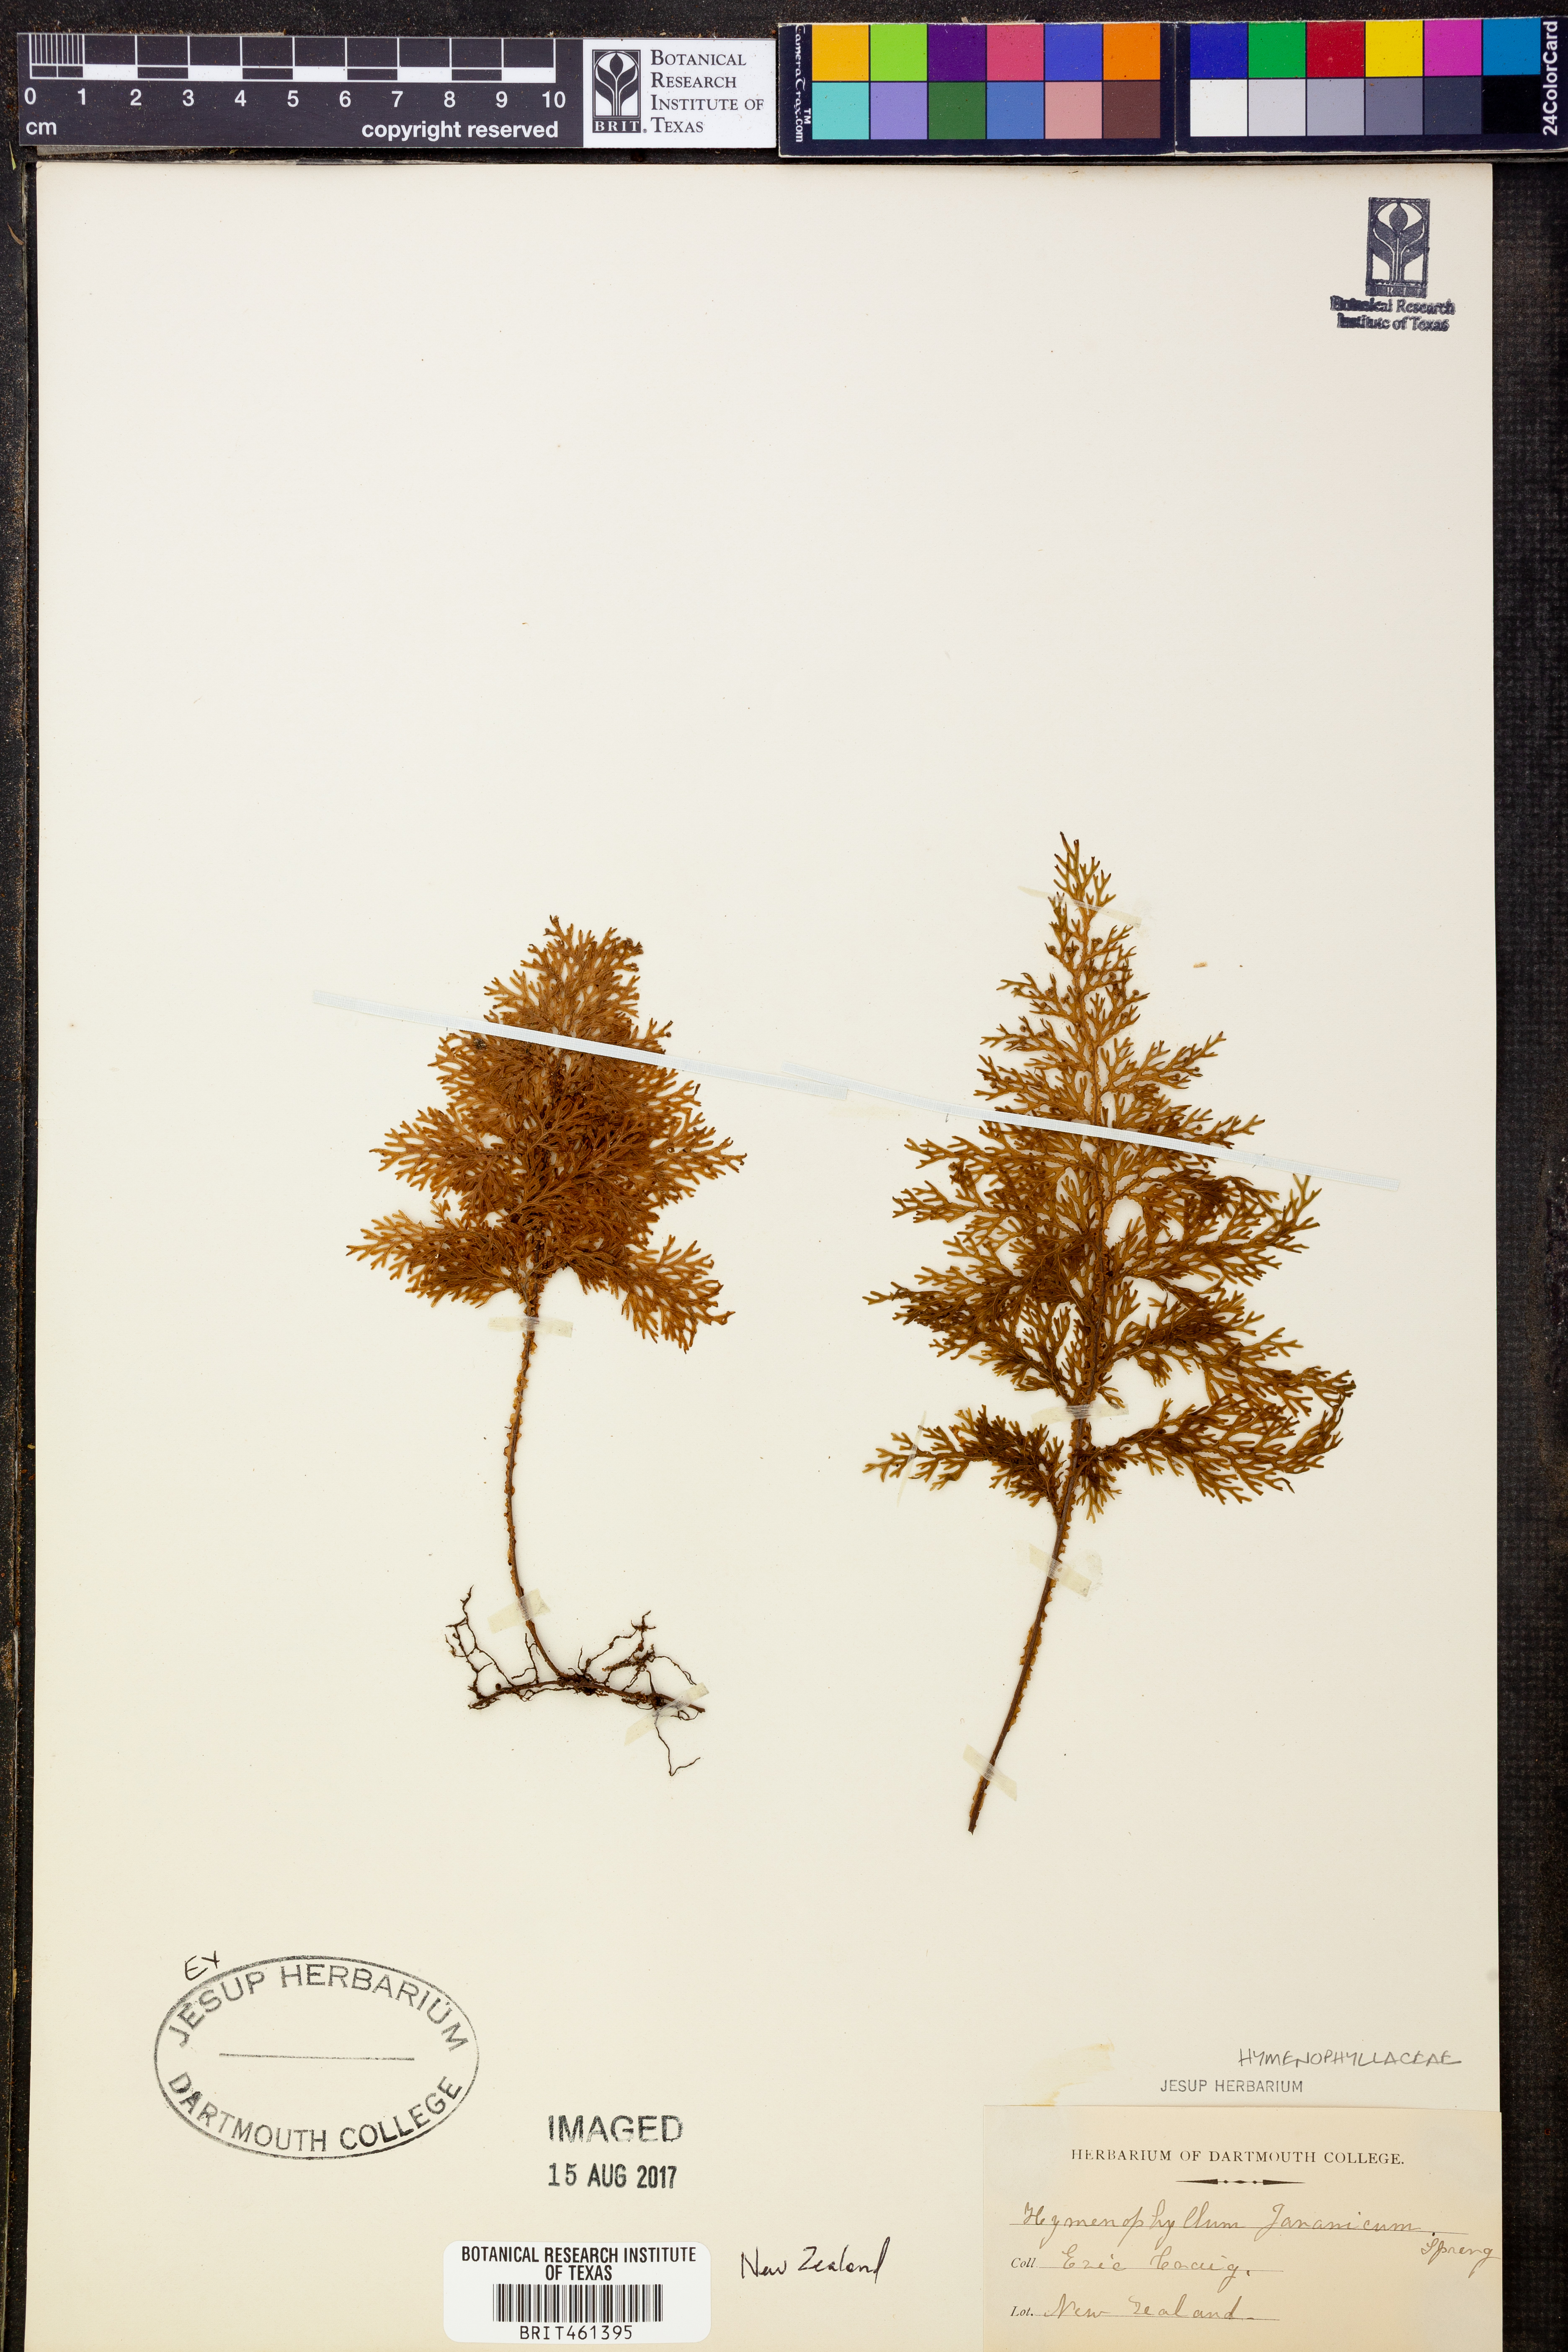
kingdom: Plantae
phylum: Tracheophyta
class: Polypodiopsida
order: Hymenophyllales
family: Hymenophyllaceae
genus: Hymenophyllum
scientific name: Hymenophyllum javanicum
